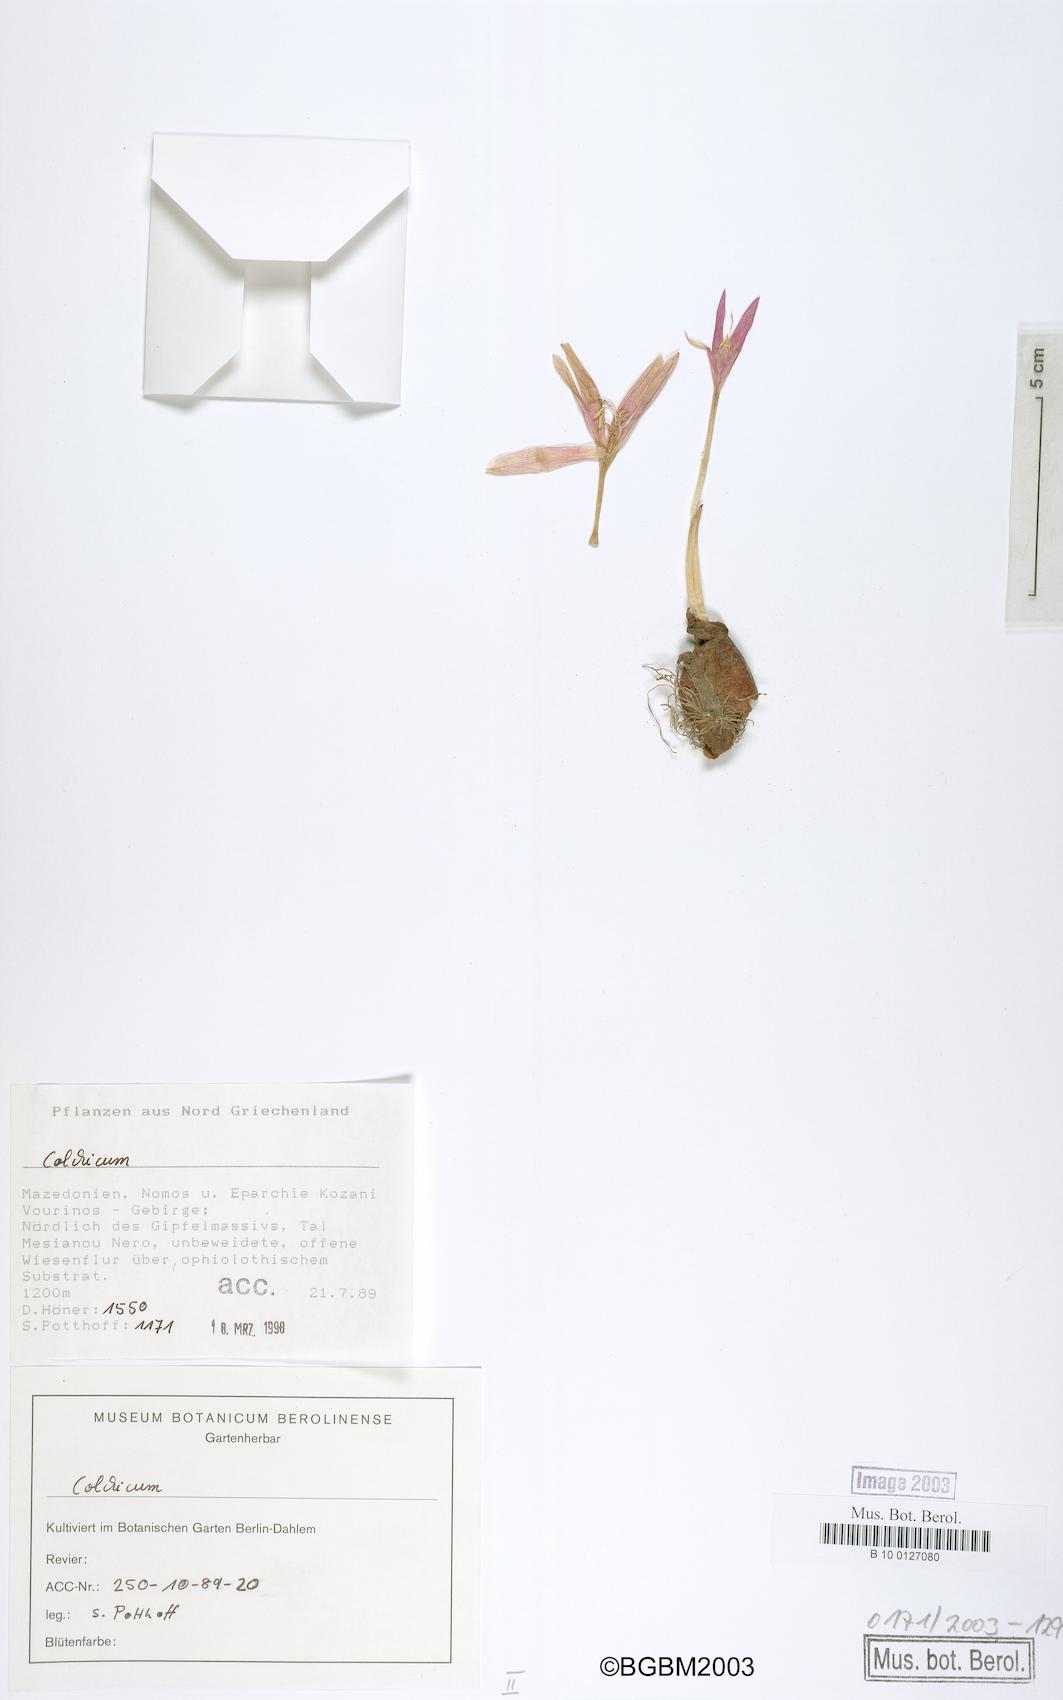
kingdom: Plantae
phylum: Tracheophyta
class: Liliopsida
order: Liliales
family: Colchicaceae
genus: Colchicum
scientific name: Colchicum
